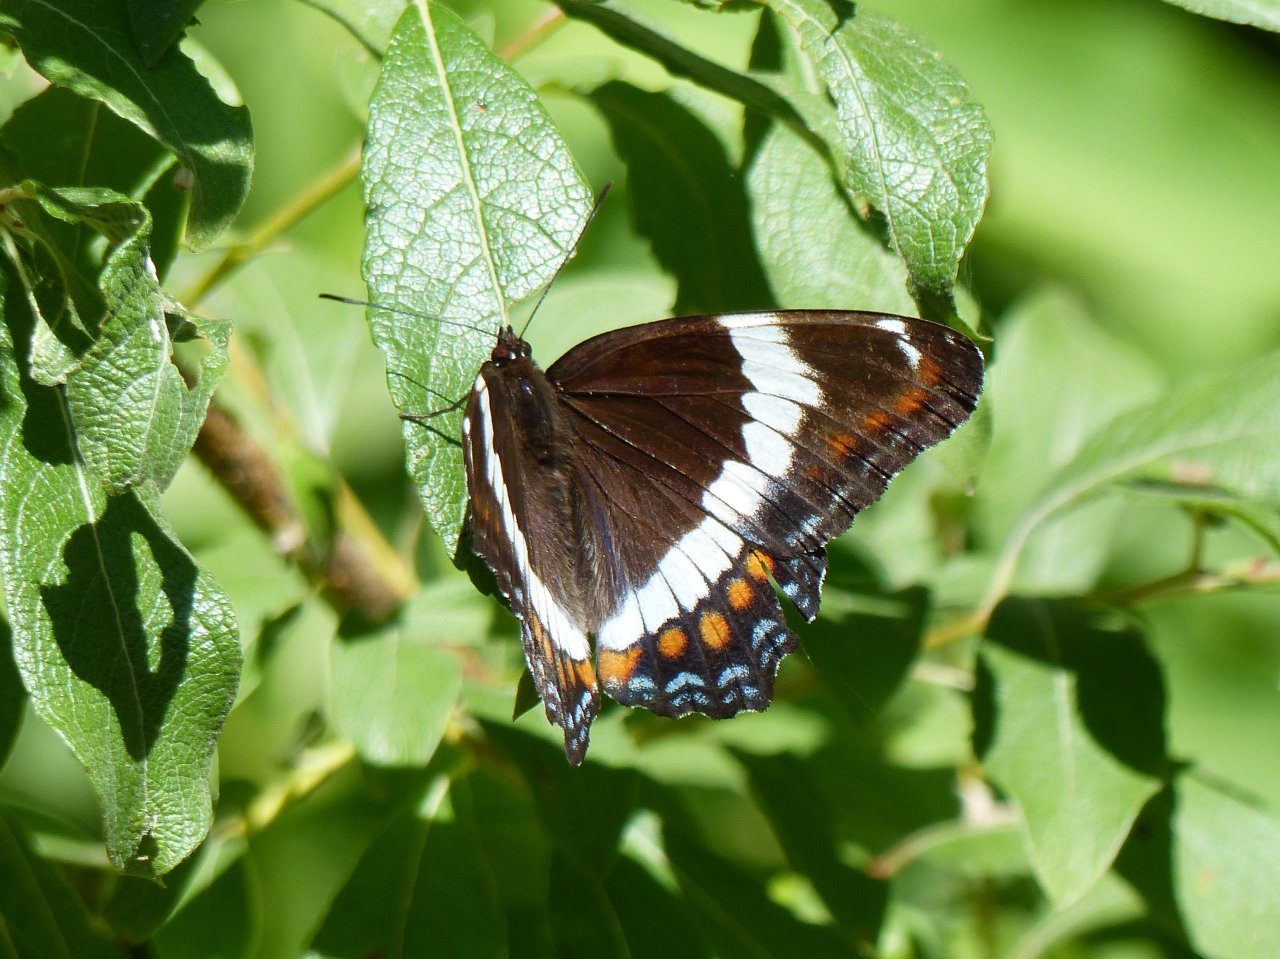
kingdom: Animalia
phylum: Arthropoda
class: Insecta
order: Lepidoptera
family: Nymphalidae
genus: Limenitis
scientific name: Limenitis arthemis
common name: Red-spotted Admiral
